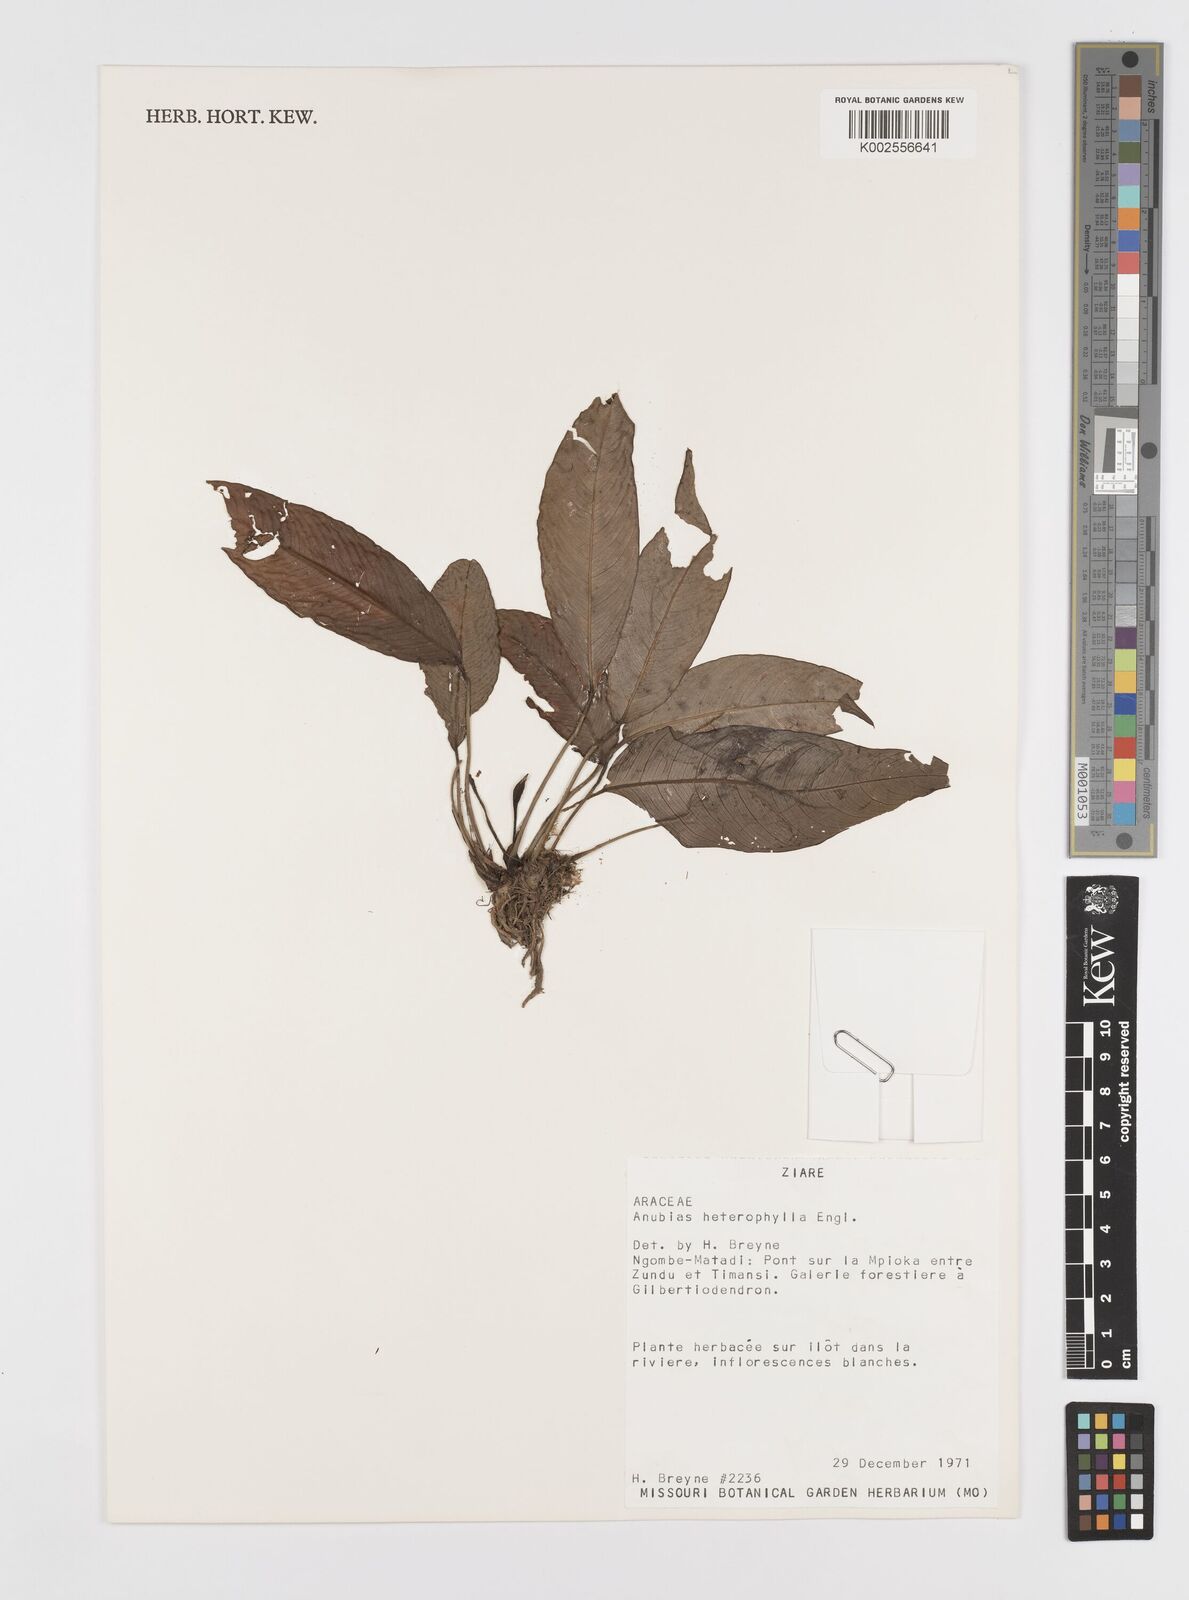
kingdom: Plantae
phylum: Tracheophyta
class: Liliopsida
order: Alismatales
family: Araceae
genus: Anubias
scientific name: Anubias heterophylla
